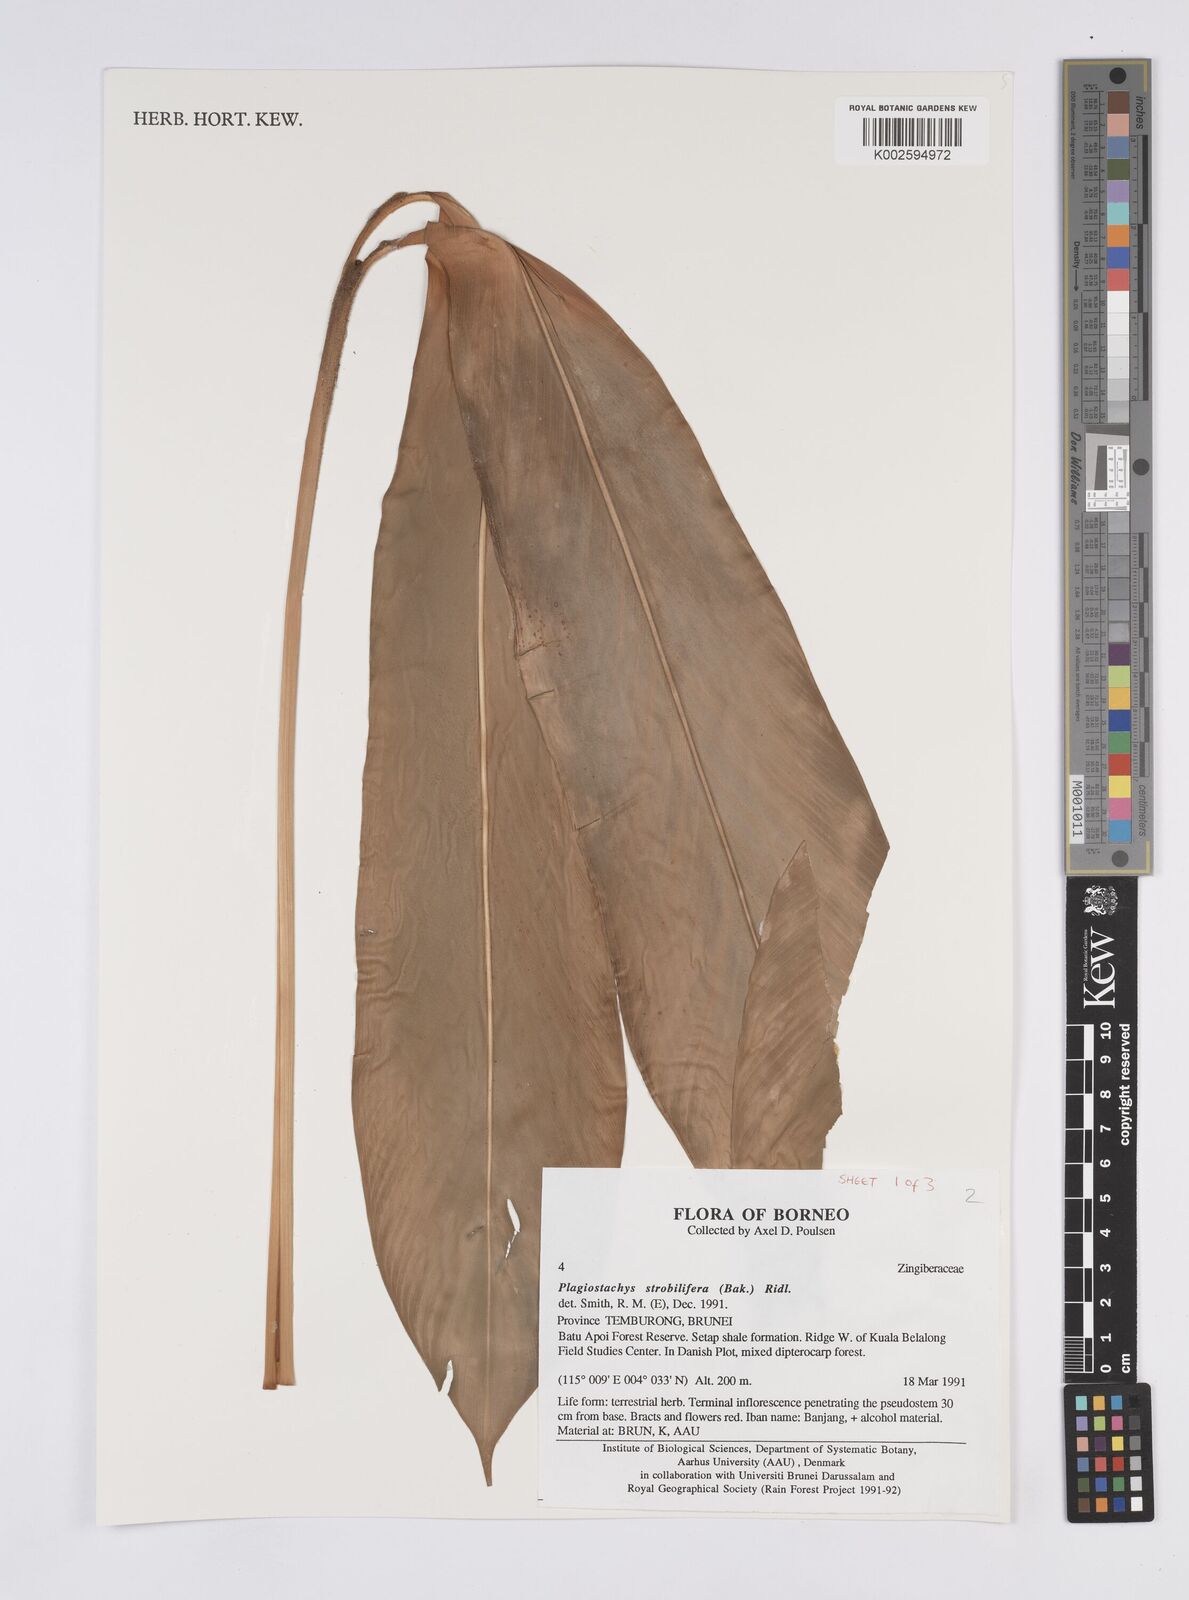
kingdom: Plantae
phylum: Tracheophyta
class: Liliopsida
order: Zingiberales
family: Zingiberaceae
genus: Plagiostachys
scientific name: Plagiostachys strobilifera
